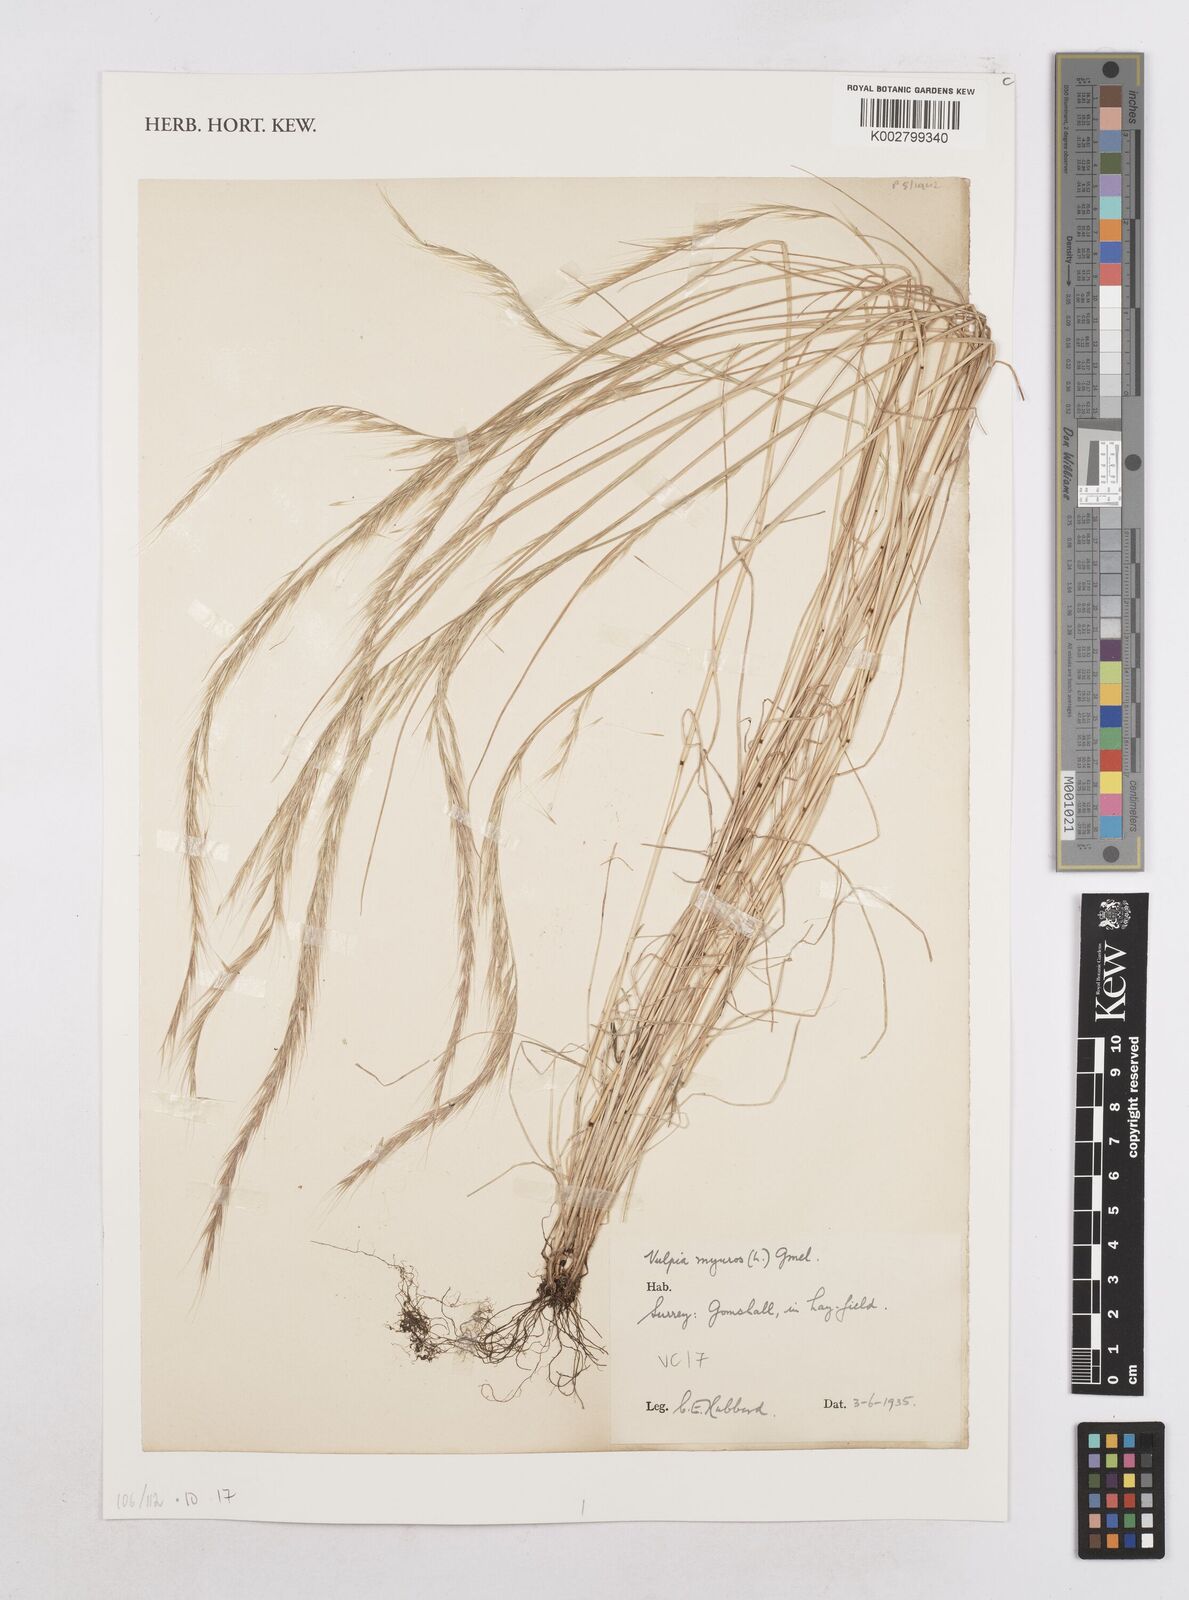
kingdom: Plantae
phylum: Tracheophyta
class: Liliopsida
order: Poales
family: Poaceae
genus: Festuca
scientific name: Festuca myuros
